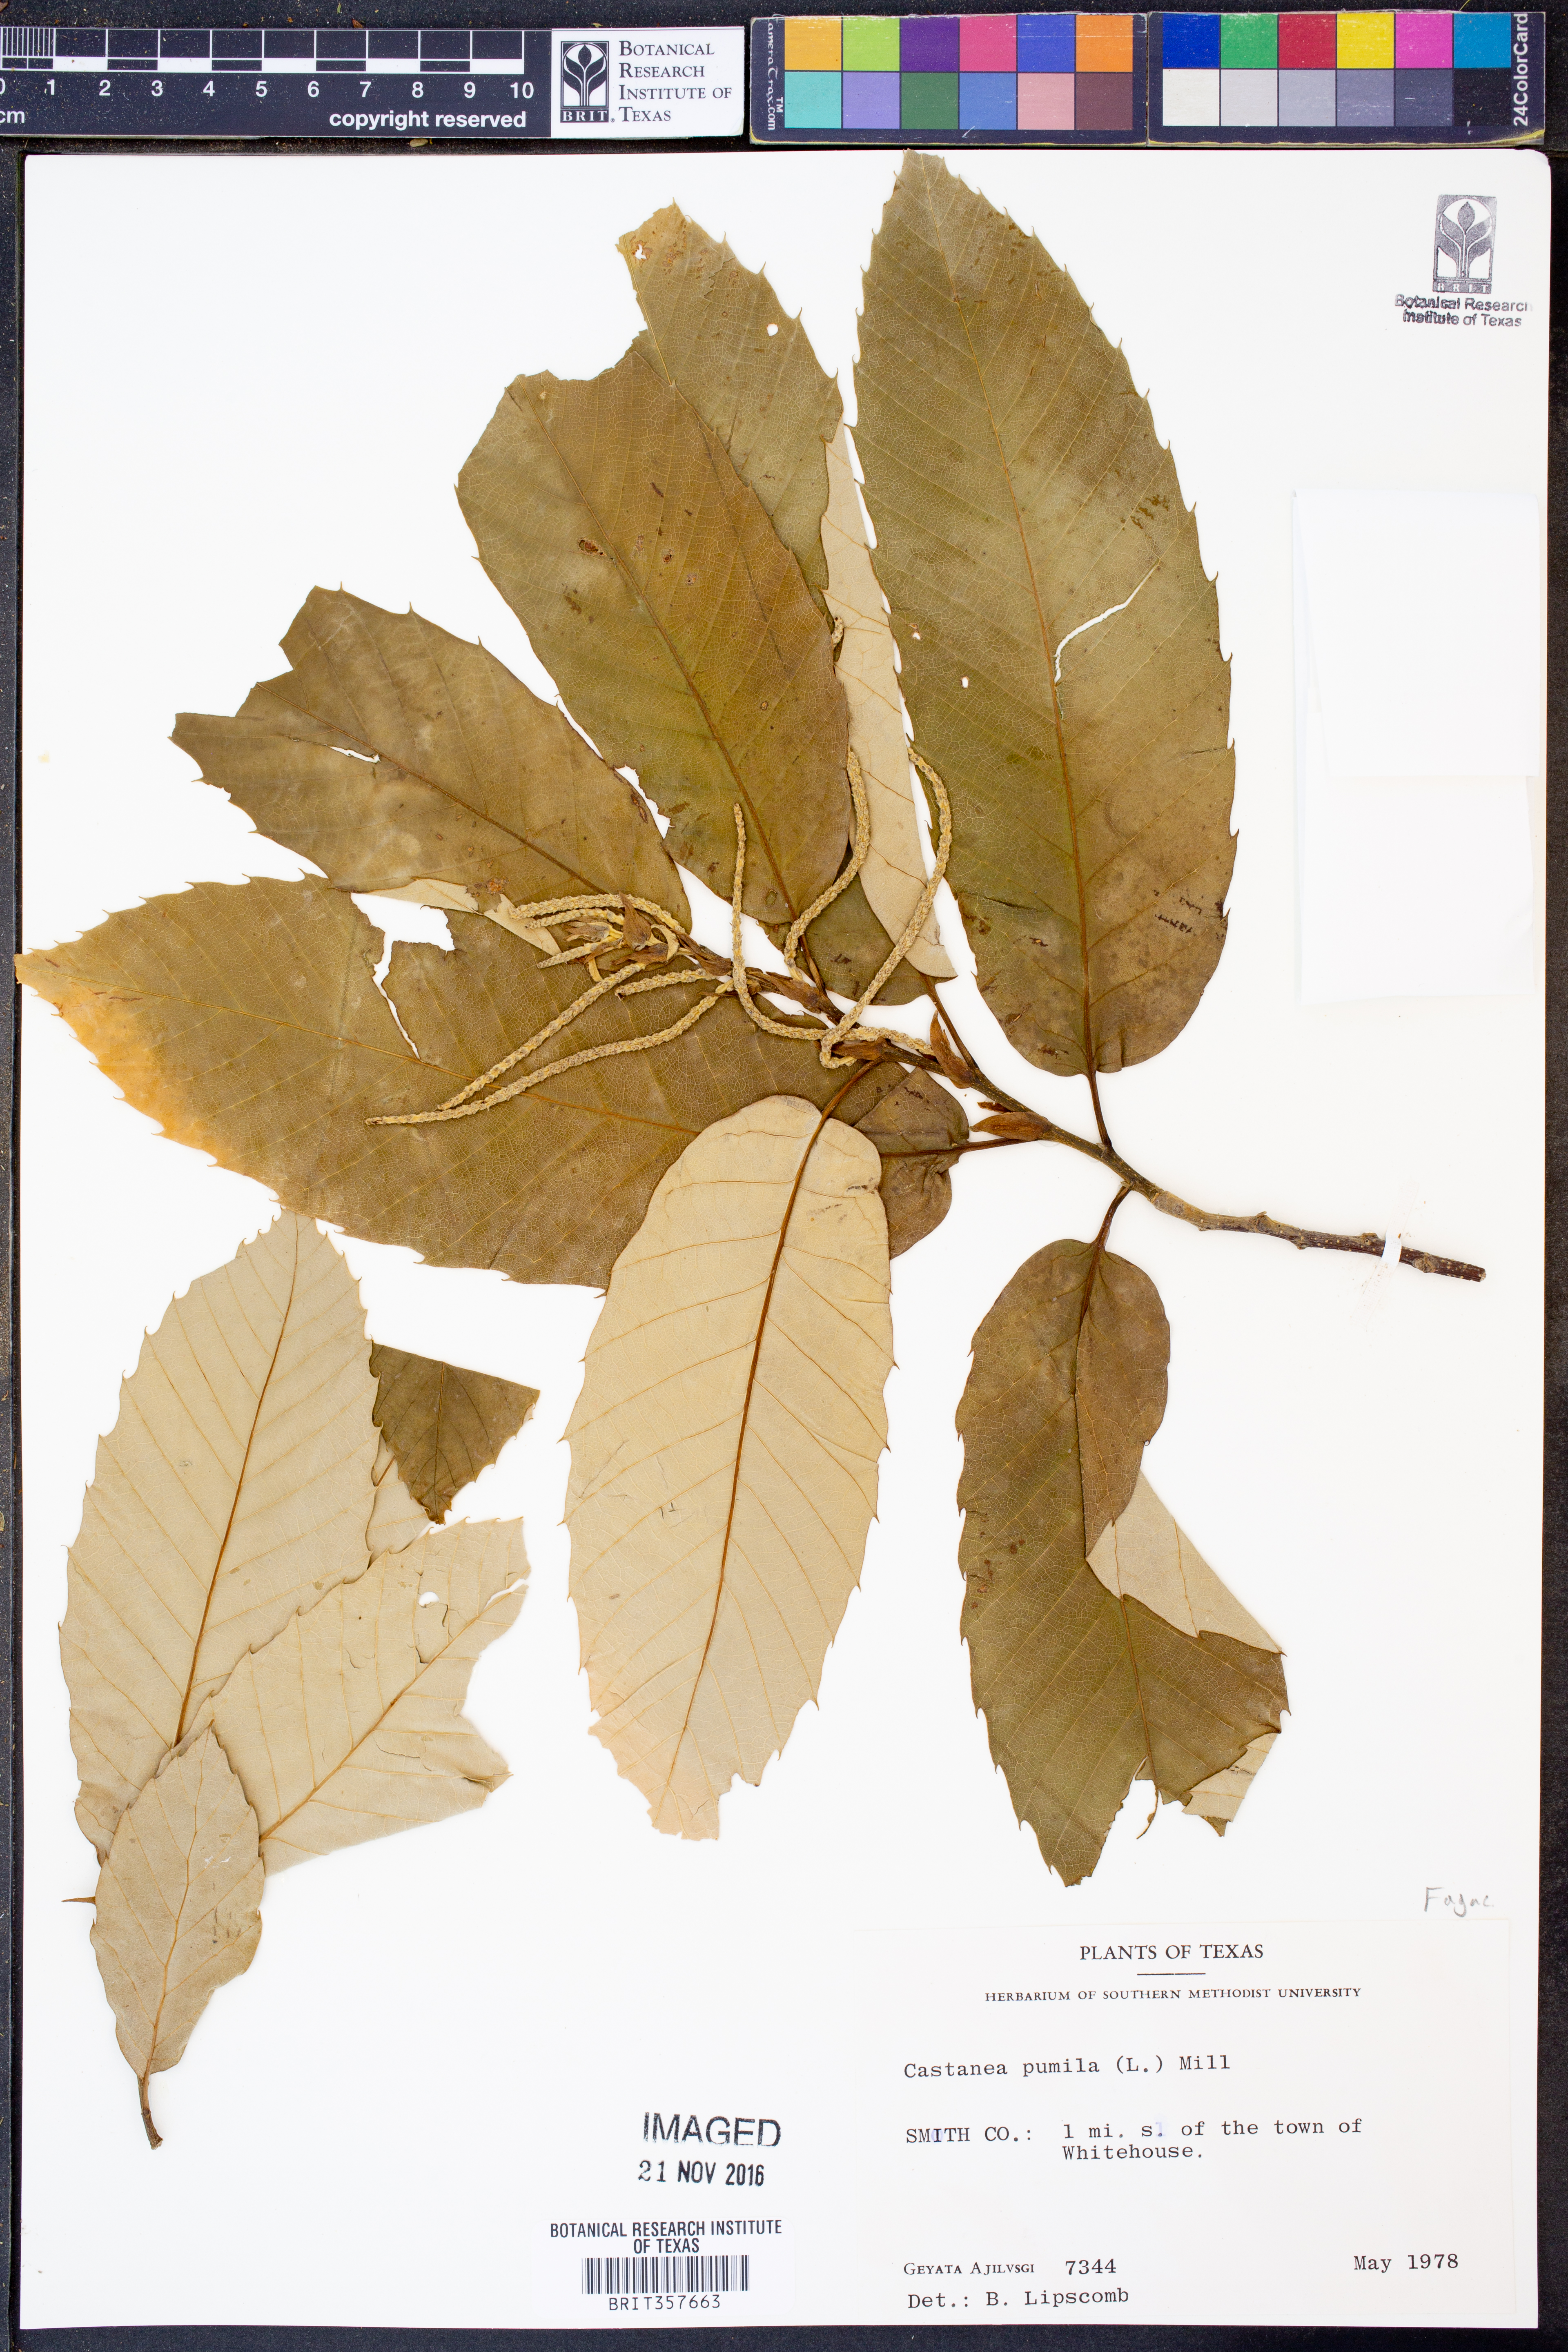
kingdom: Plantae
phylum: Tracheophyta
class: Magnoliopsida
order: Fagales
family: Fagaceae
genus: Castanea
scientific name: Castanea pumila
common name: Chinkapin
